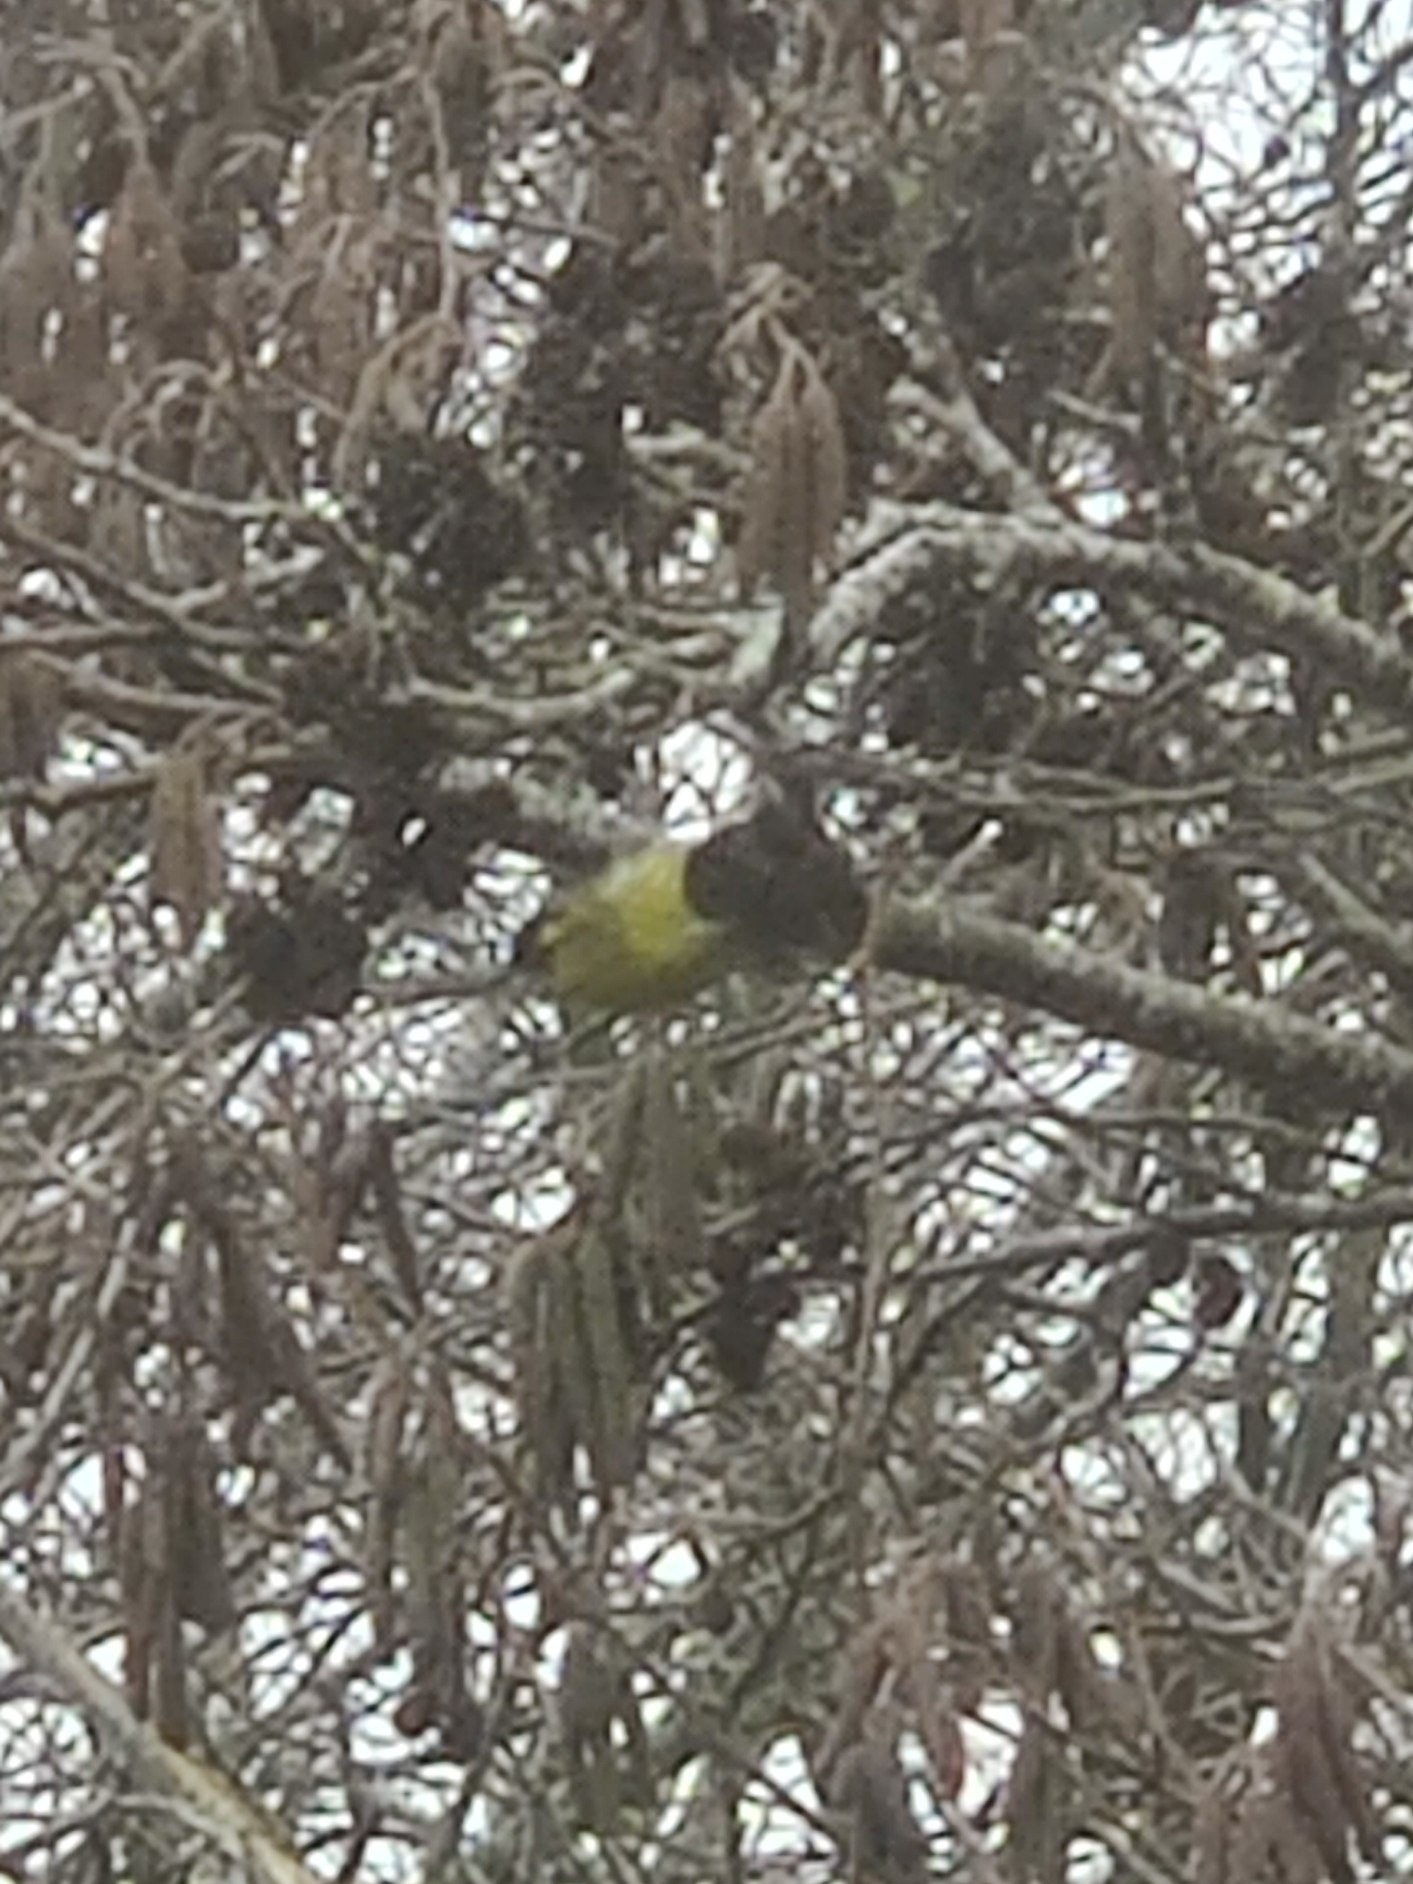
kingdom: Animalia
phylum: Chordata
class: Aves
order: Passeriformes
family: Fringillidae
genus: Spinus
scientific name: Spinus spinus
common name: Grønsisken
